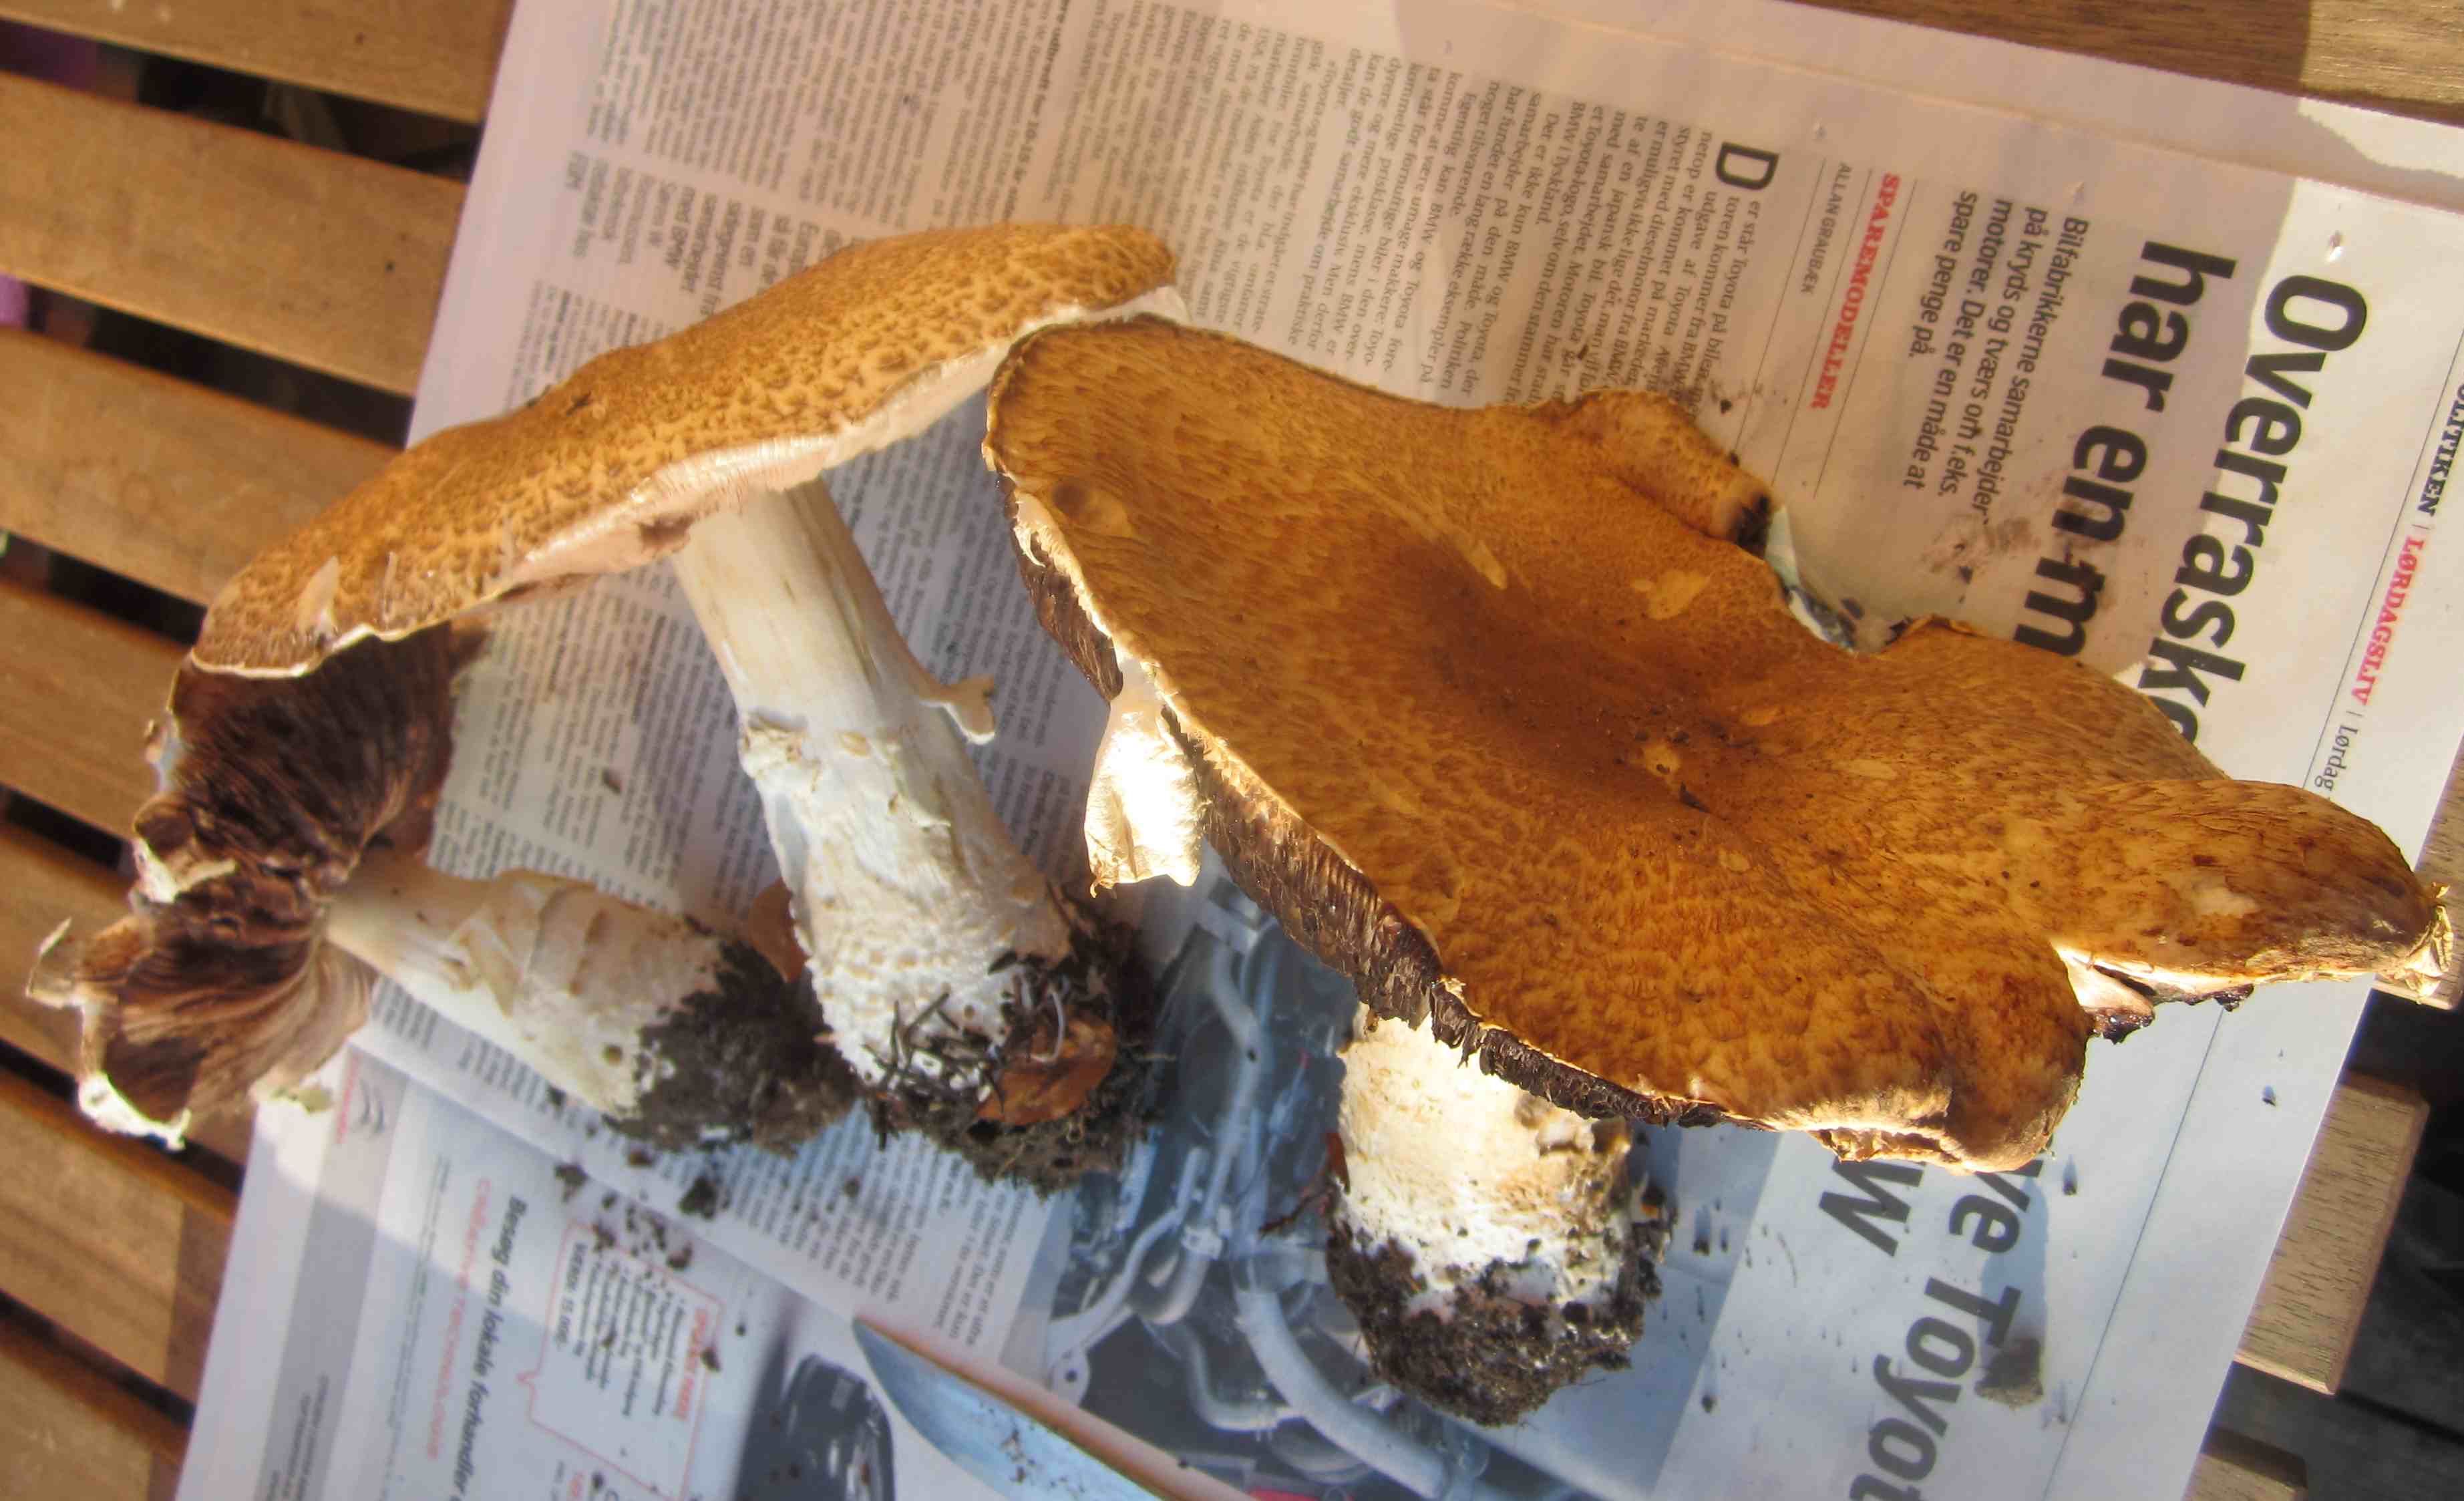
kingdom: Fungi
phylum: Basidiomycota
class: Agaricomycetes
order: Agaricales
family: Agaricaceae
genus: Agaricus
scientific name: Agaricus augustus
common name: prægtig champignon
